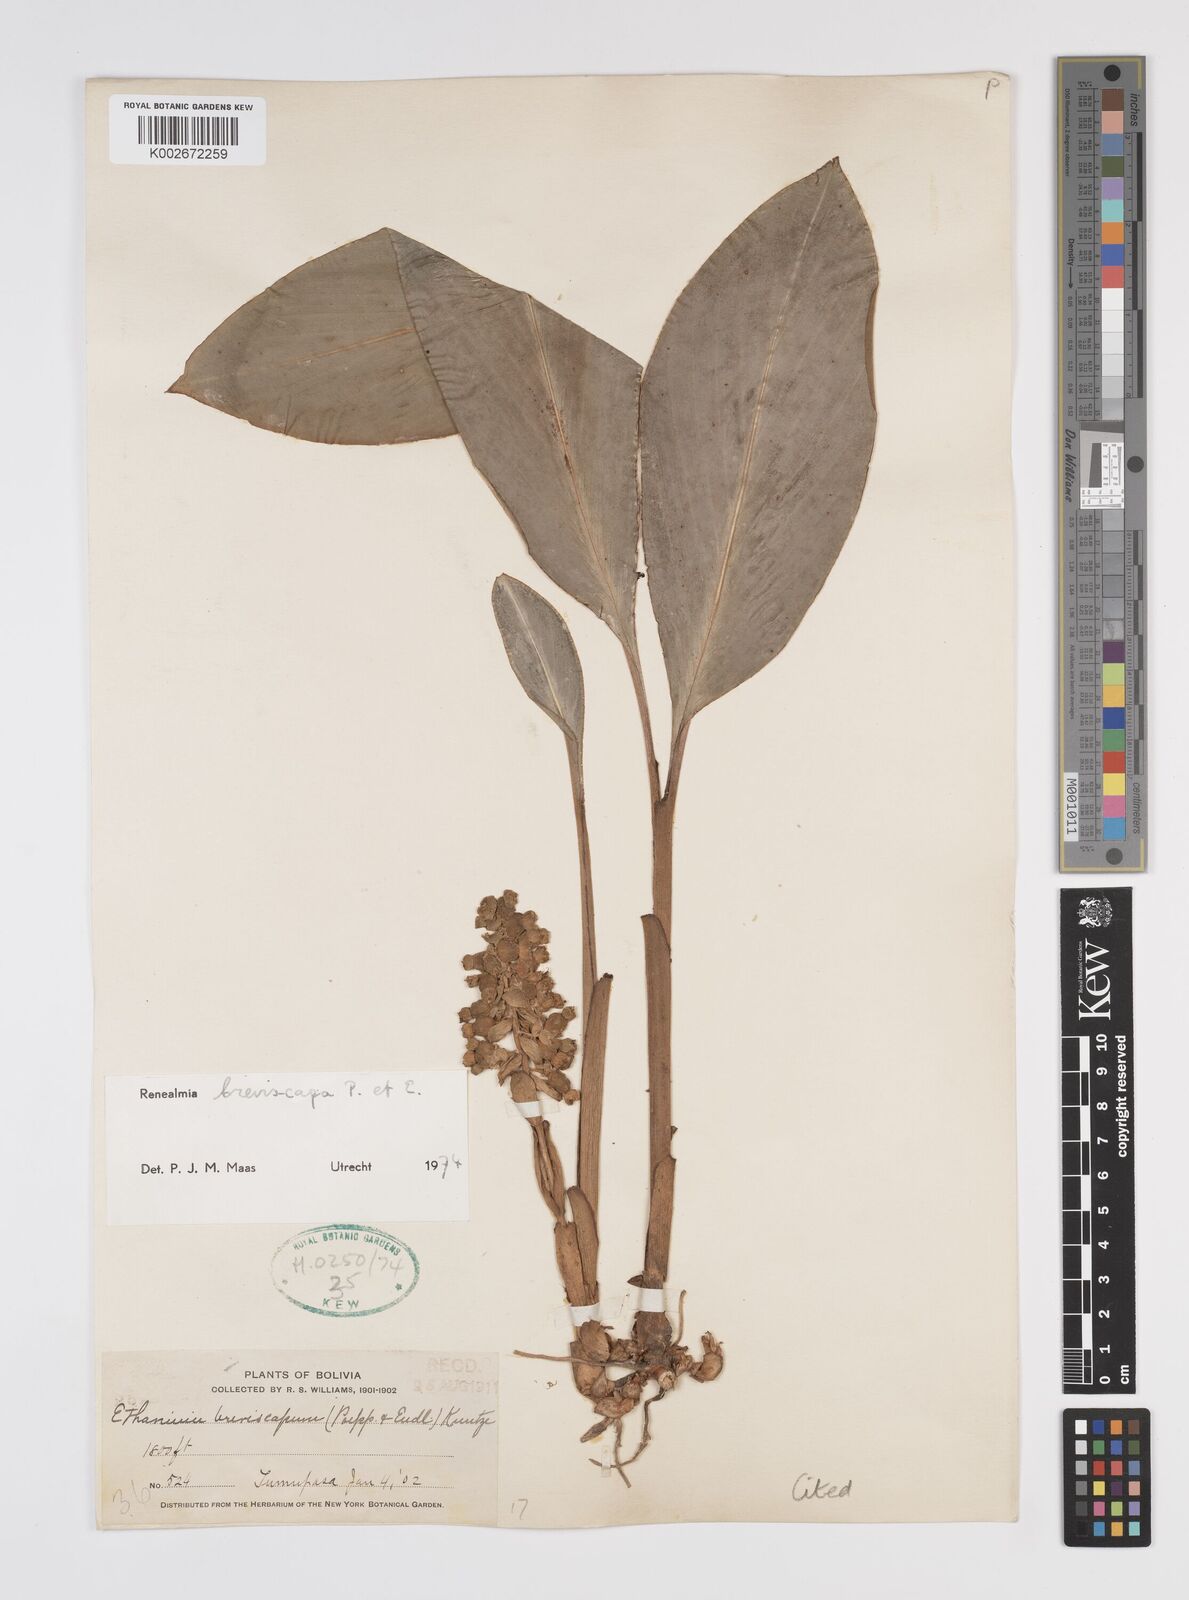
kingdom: Plantae
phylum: Tracheophyta
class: Liliopsida
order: Zingiberales
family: Zingiberaceae
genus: Renealmia
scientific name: Renealmia breviscapa
